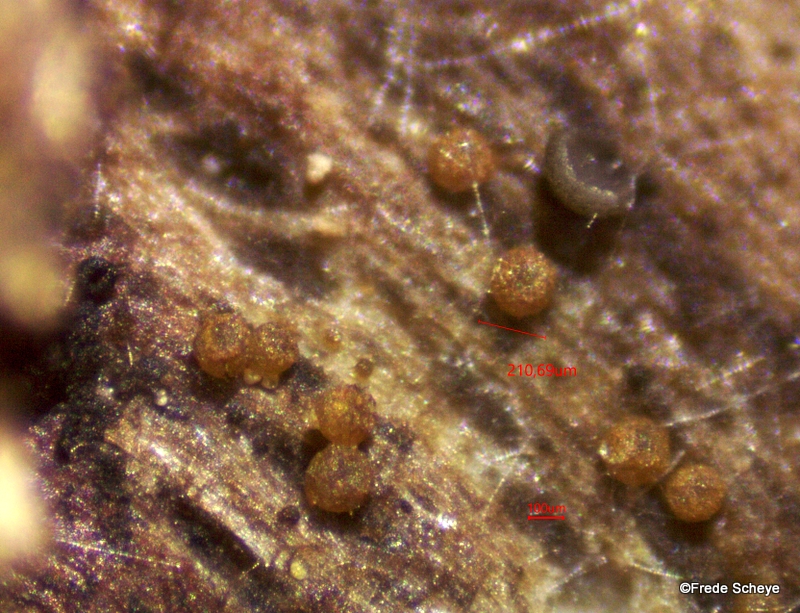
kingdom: Fungi
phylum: Ascomycota
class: Dothideomycetes
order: Tubeufiales
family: Tubeufiaceae
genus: Tubeufia
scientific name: Tubeufia cerea
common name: gulbrun tyksækkrukke
